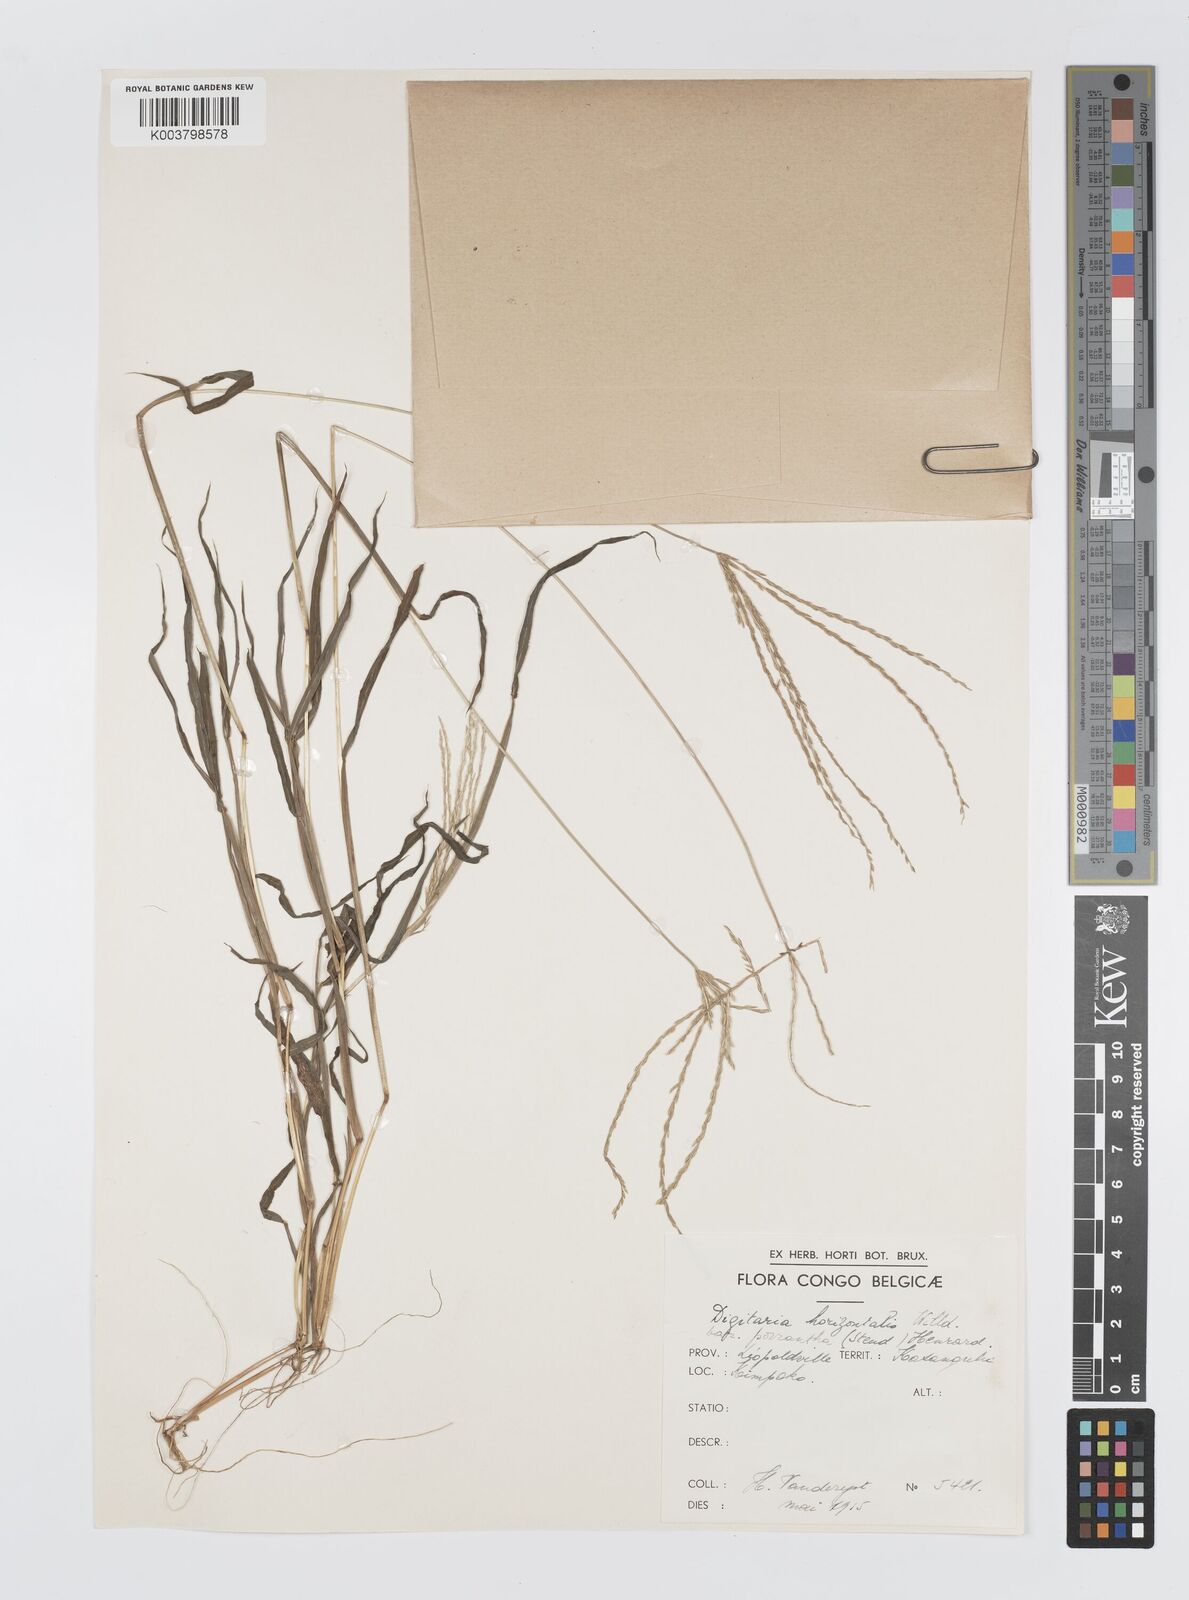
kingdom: Plantae
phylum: Tracheophyta
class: Liliopsida
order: Poales
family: Poaceae
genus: Digitaria
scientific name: Digitaria nuda
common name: Naked crabgrass
